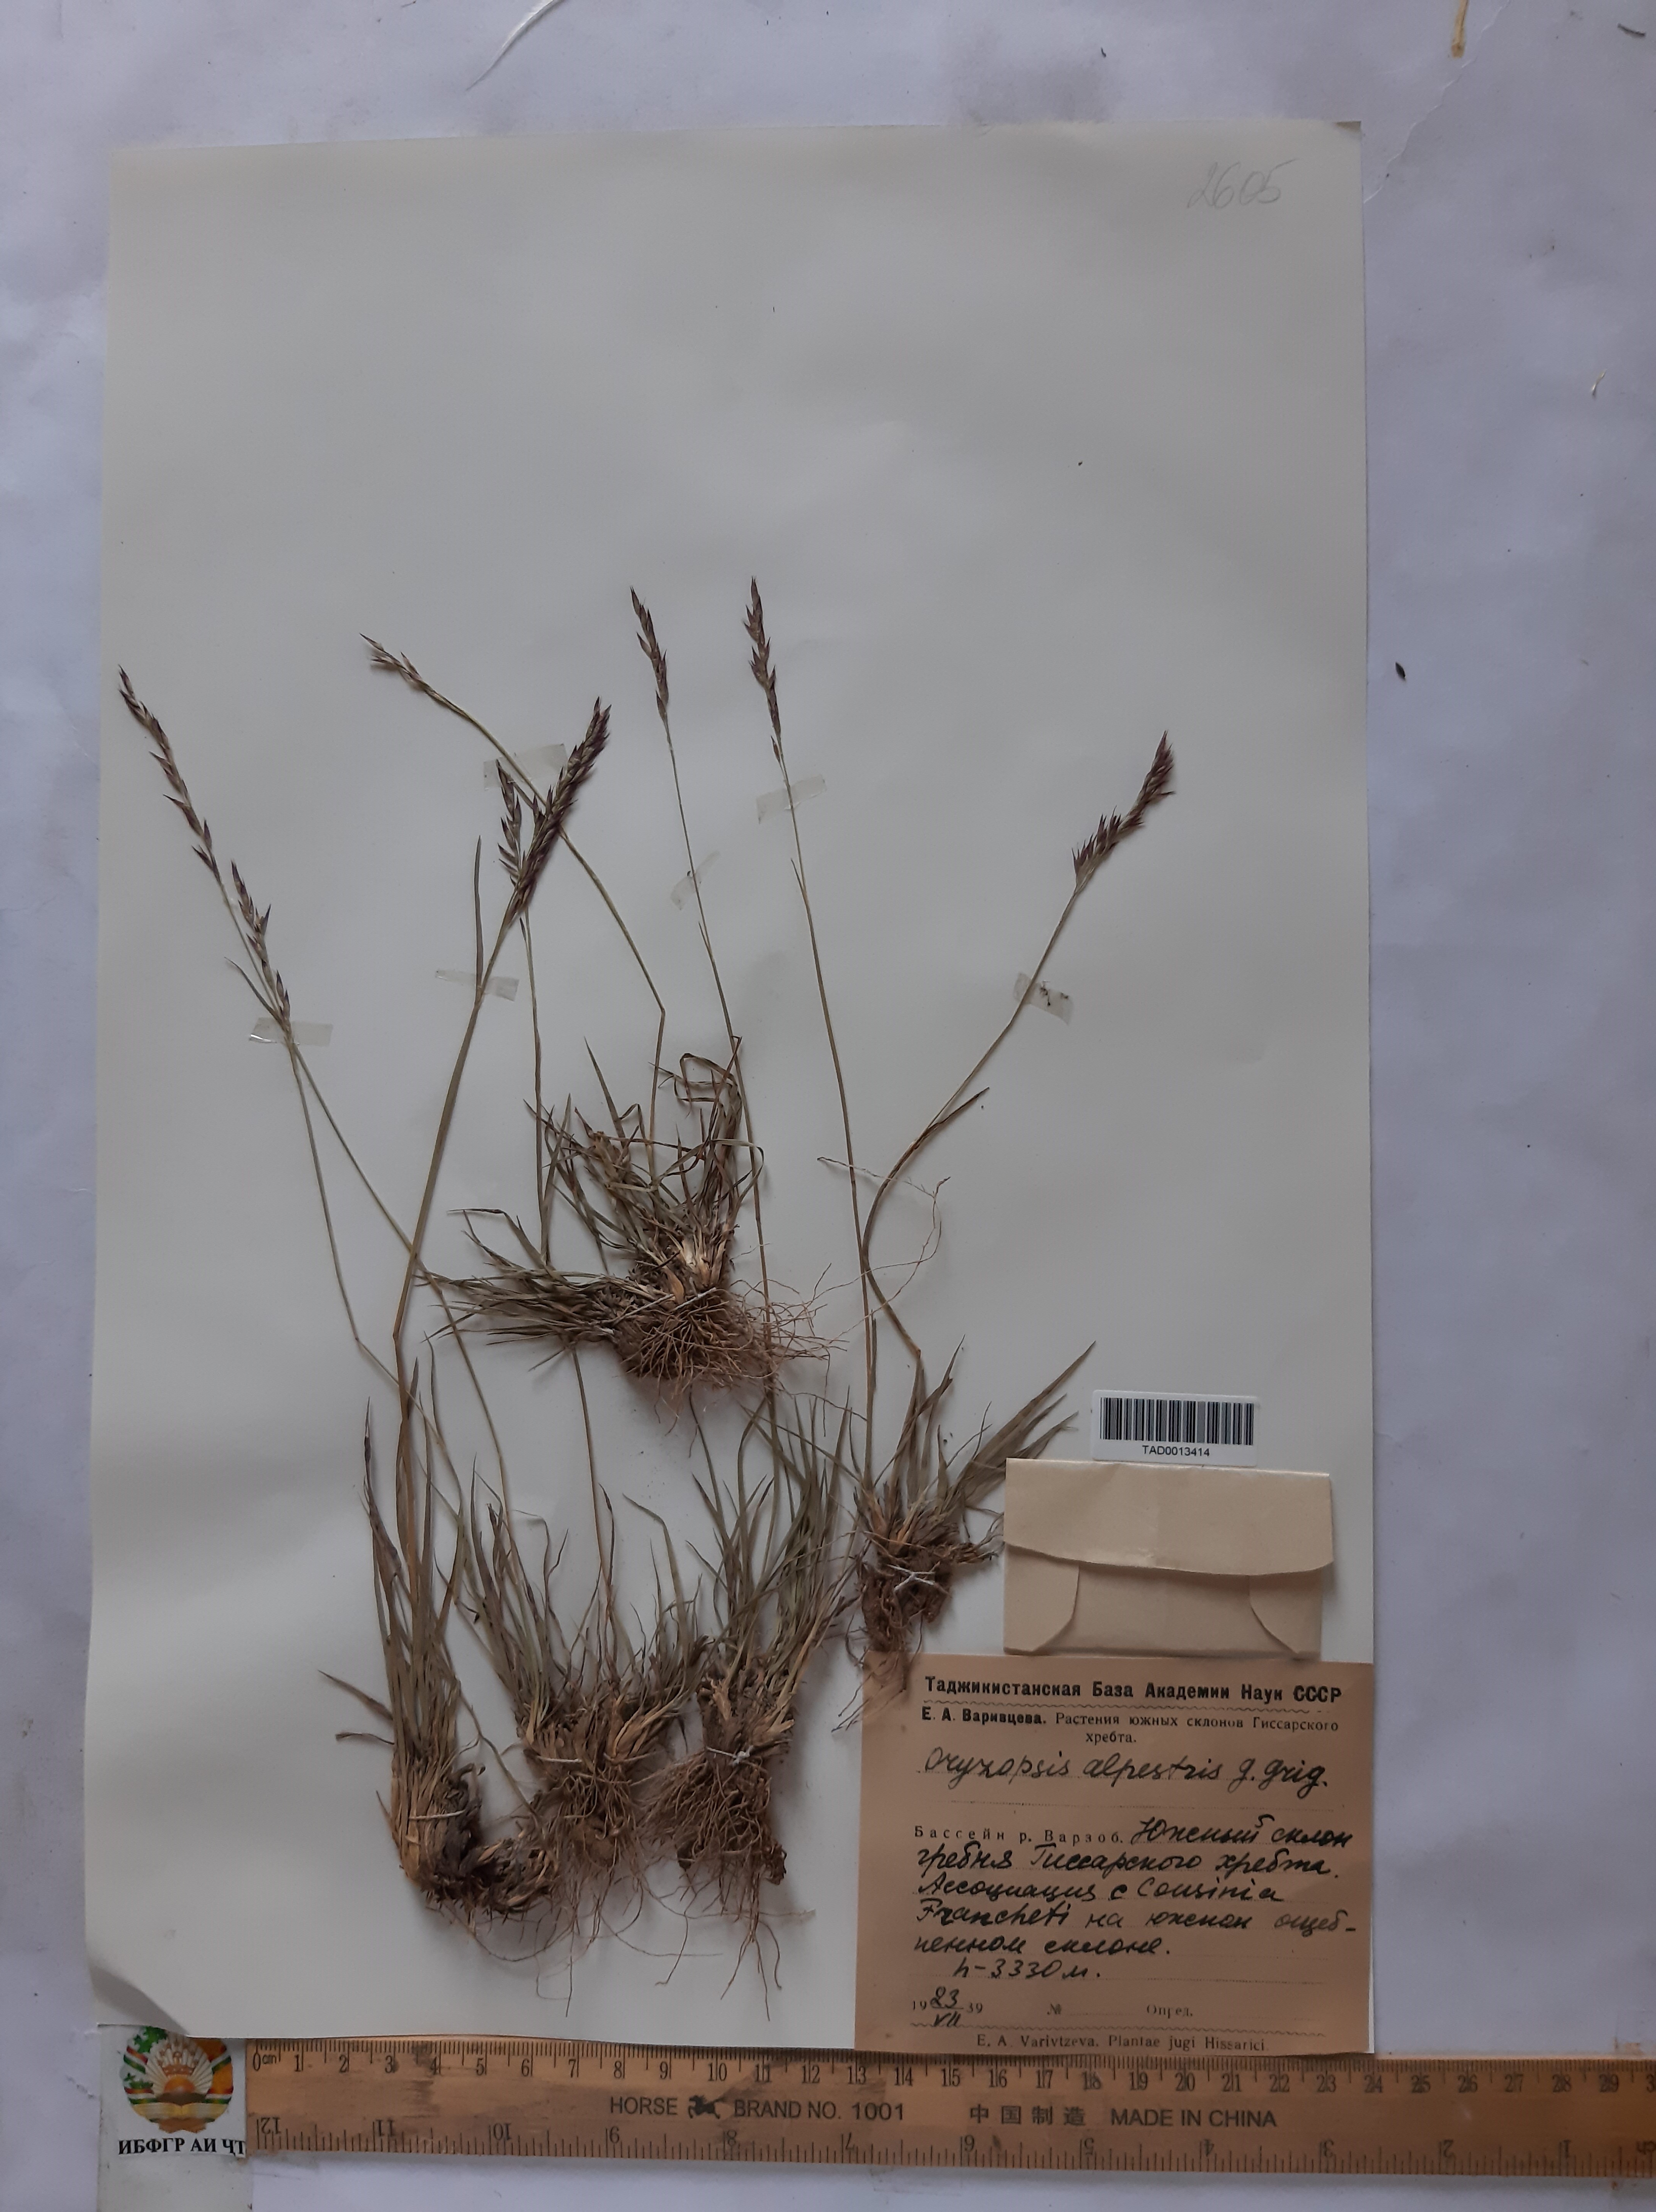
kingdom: Plantae
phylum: Tracheophyta
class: Liliopsida
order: Poales
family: Poaceae
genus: Piptatherum
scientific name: Piptatherum alpestre
